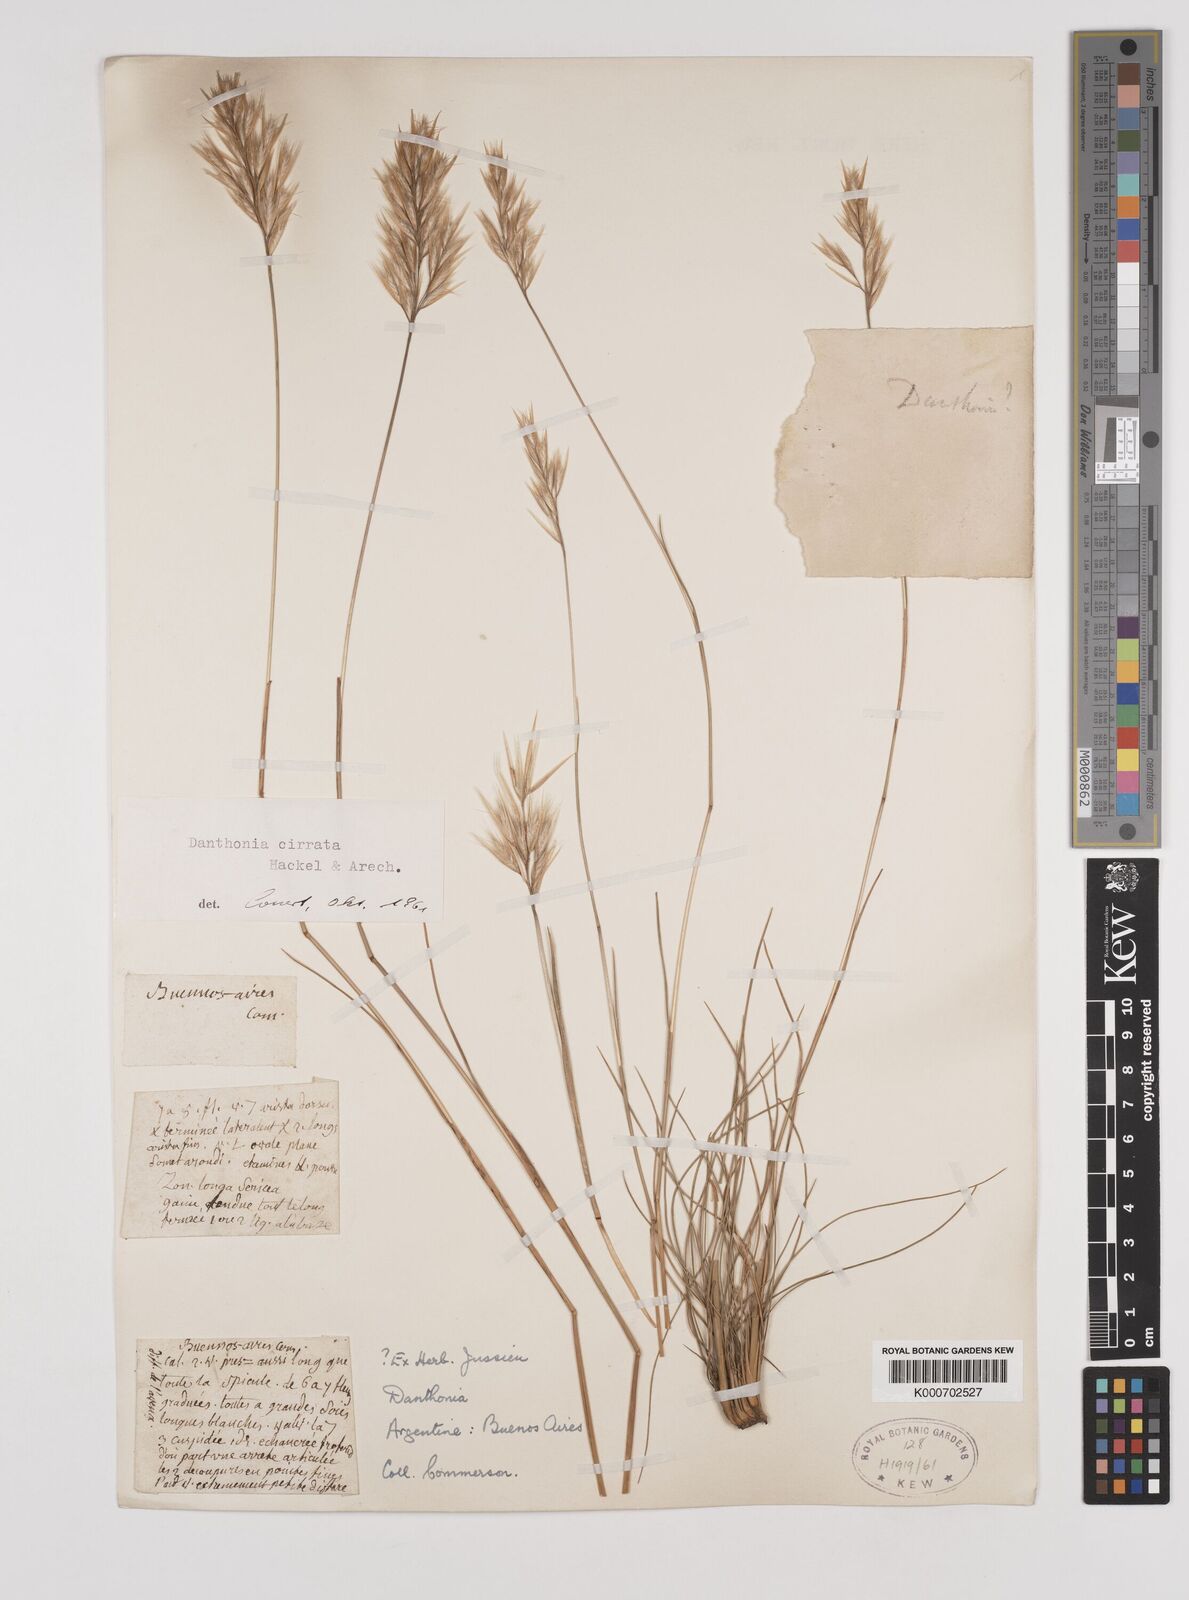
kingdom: Plantae
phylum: Tracheophyta
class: Liliopsida
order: Poales
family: Poaceae
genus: Danthonia
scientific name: Danthonia cirrata
